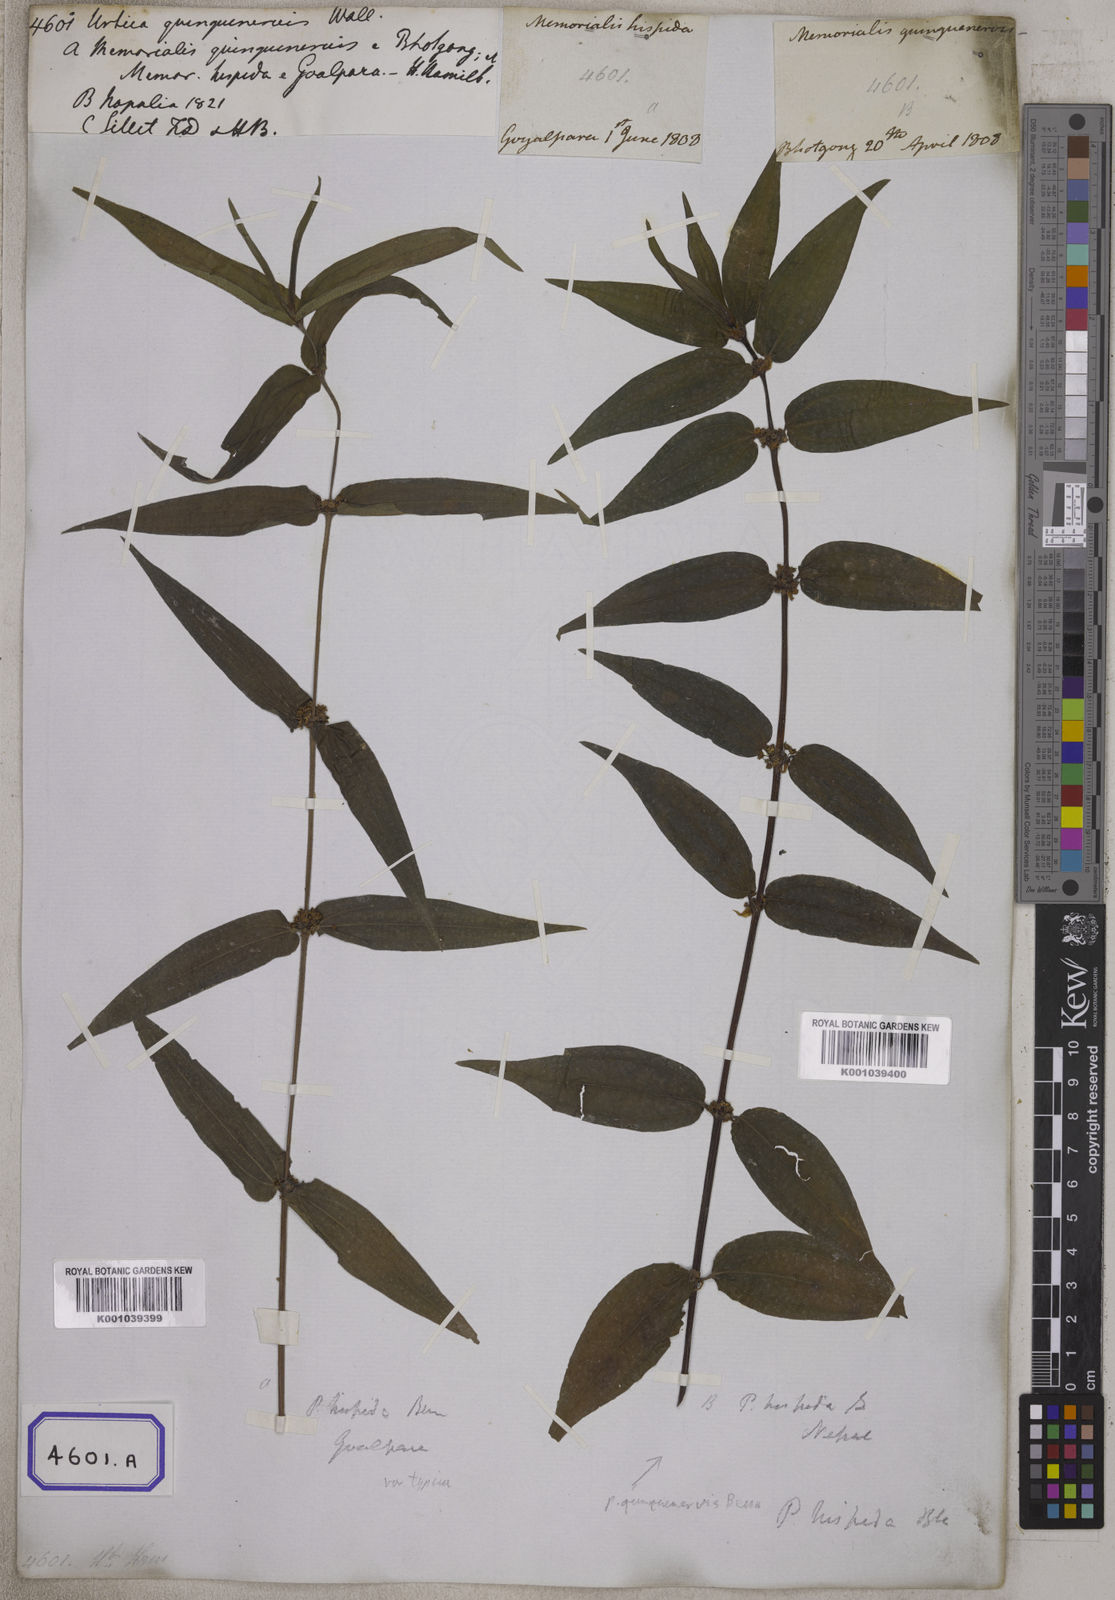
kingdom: Plantae
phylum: Tracheophyta
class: Magnoliopsida
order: Rosales
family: Urticaceae
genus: Gonostegia
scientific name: Gonostegia triandra
